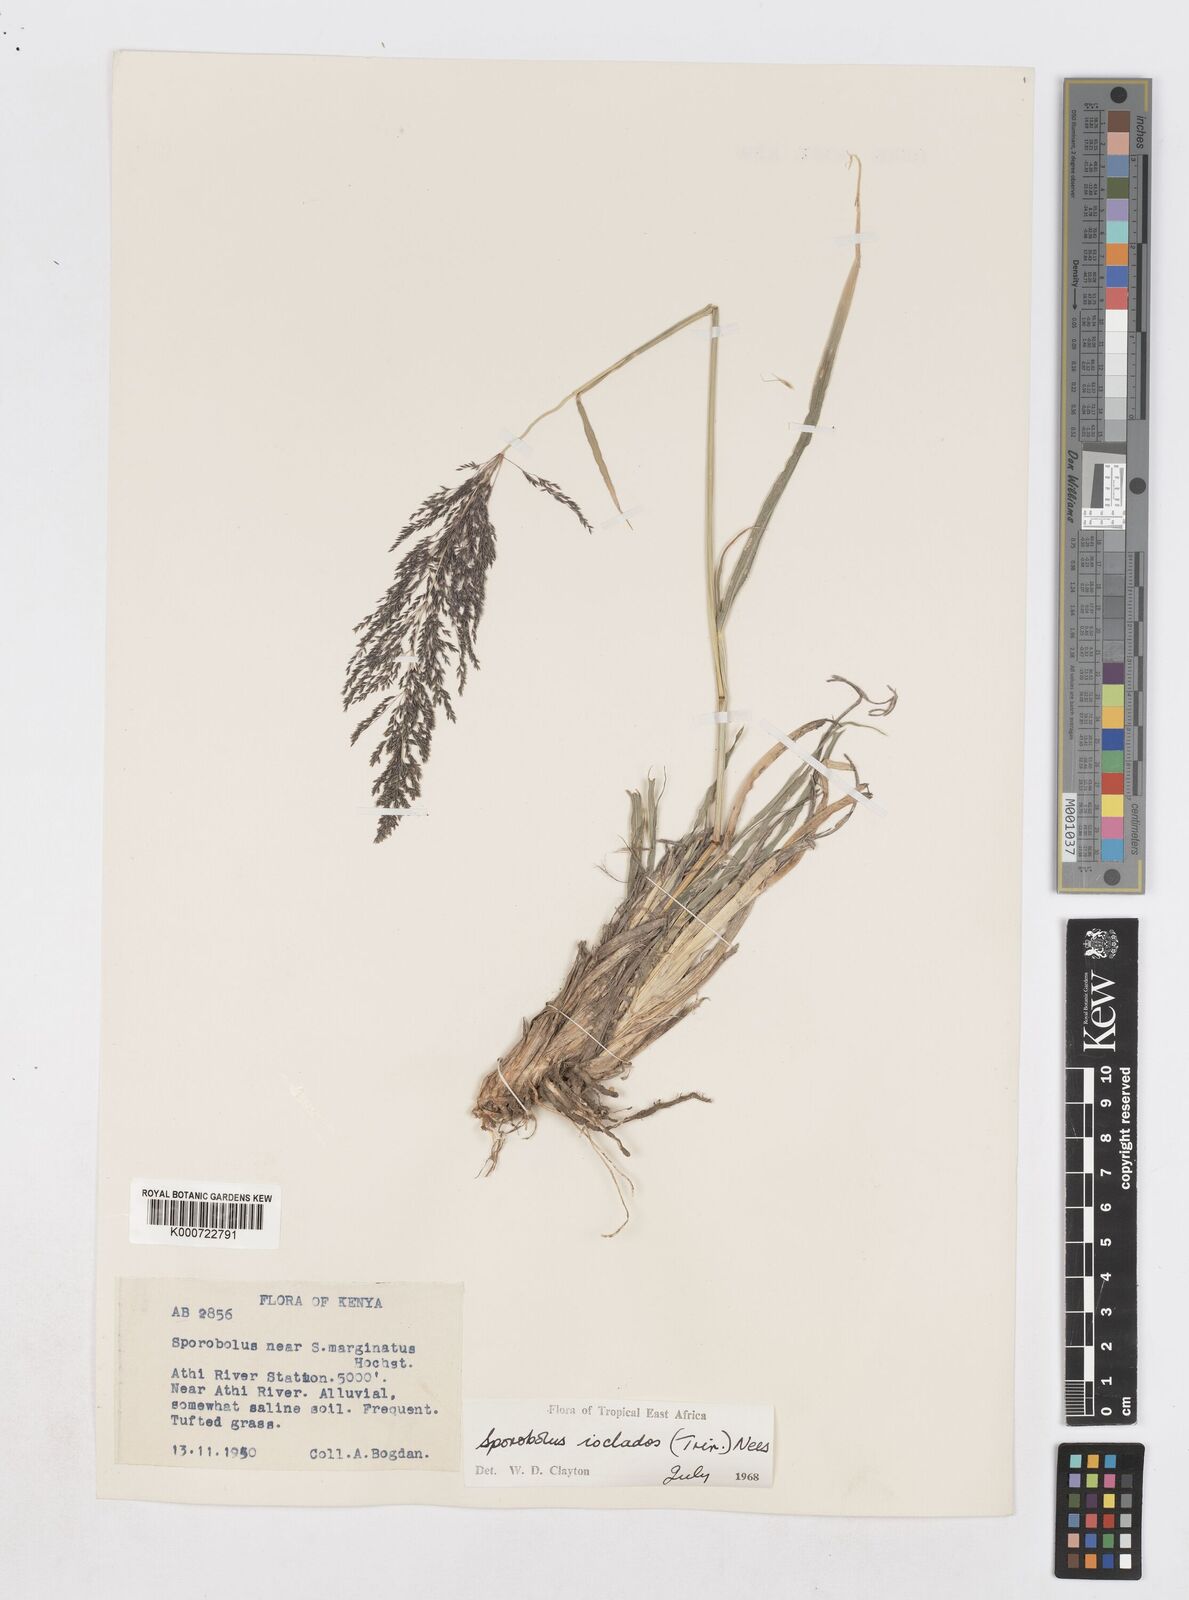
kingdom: Plantae
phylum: Tracheophyta
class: Liliopsida
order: Poales
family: Poaceae
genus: Sporobolus
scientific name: Sporobolus ioclados
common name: Pan dropseed
